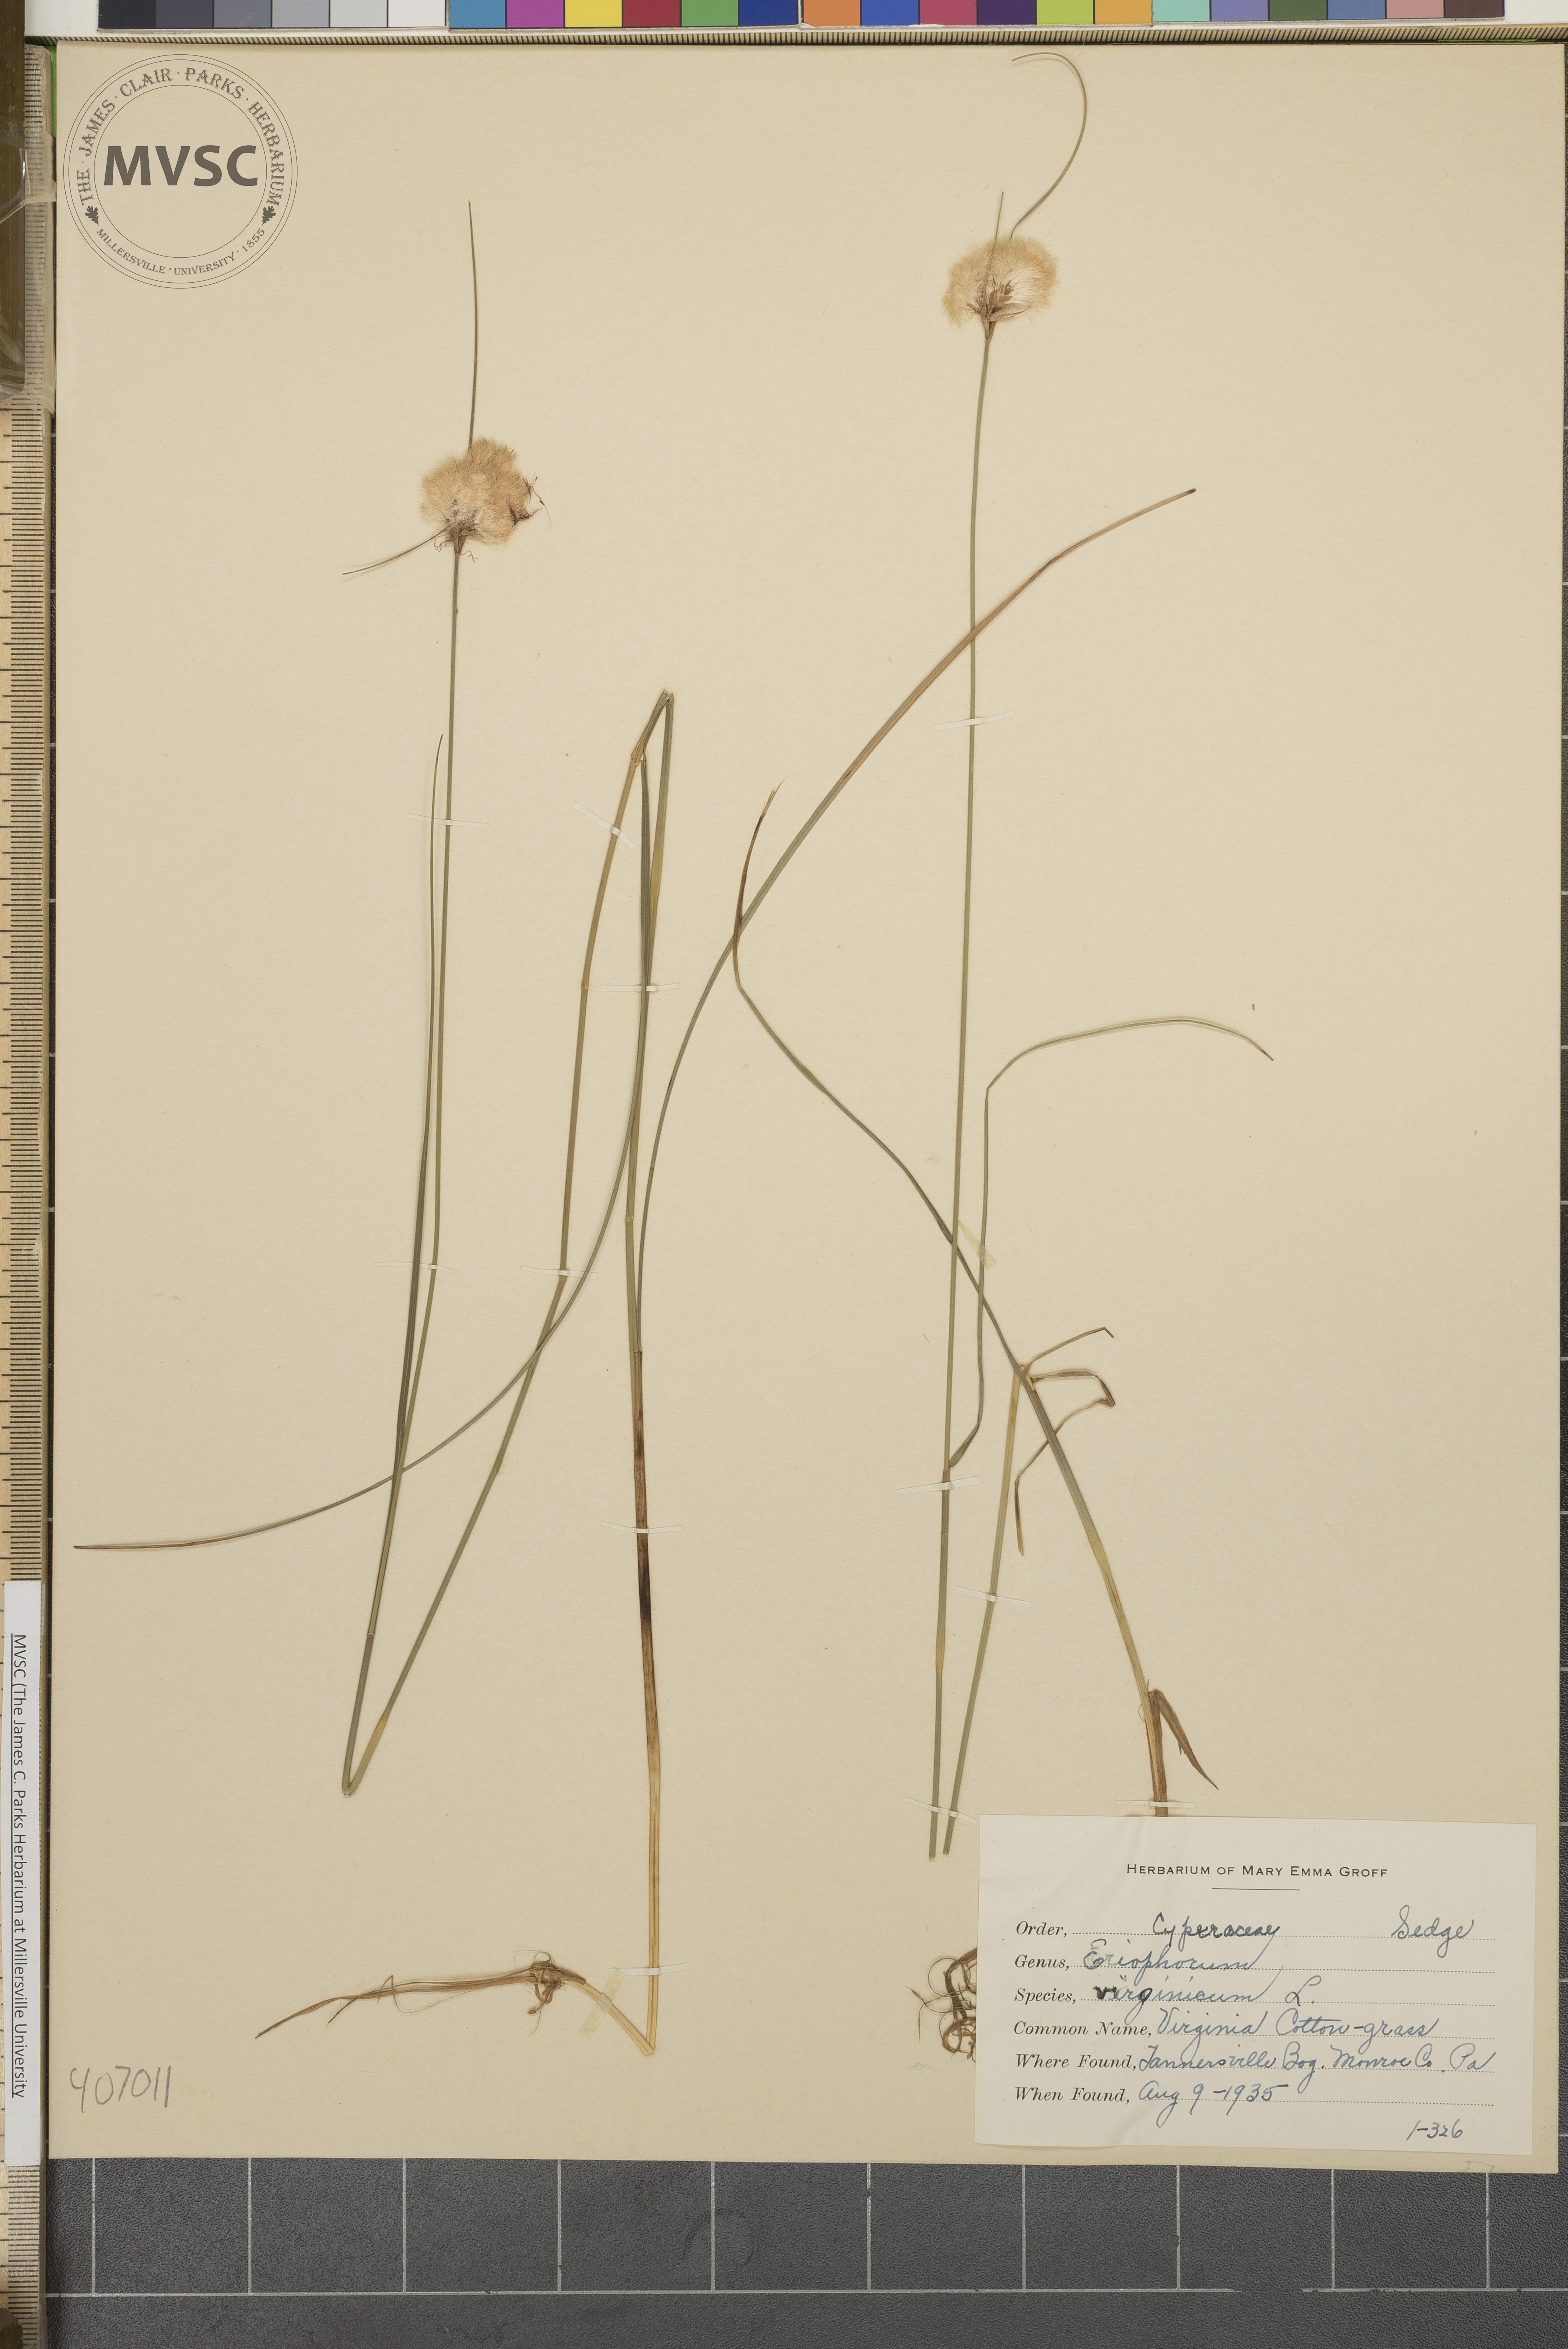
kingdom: Plantae
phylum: Tracheophyta
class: Liliopsida
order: Poales
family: Cyperaceae
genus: Eriophorum
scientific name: Eriophorum virginicum
